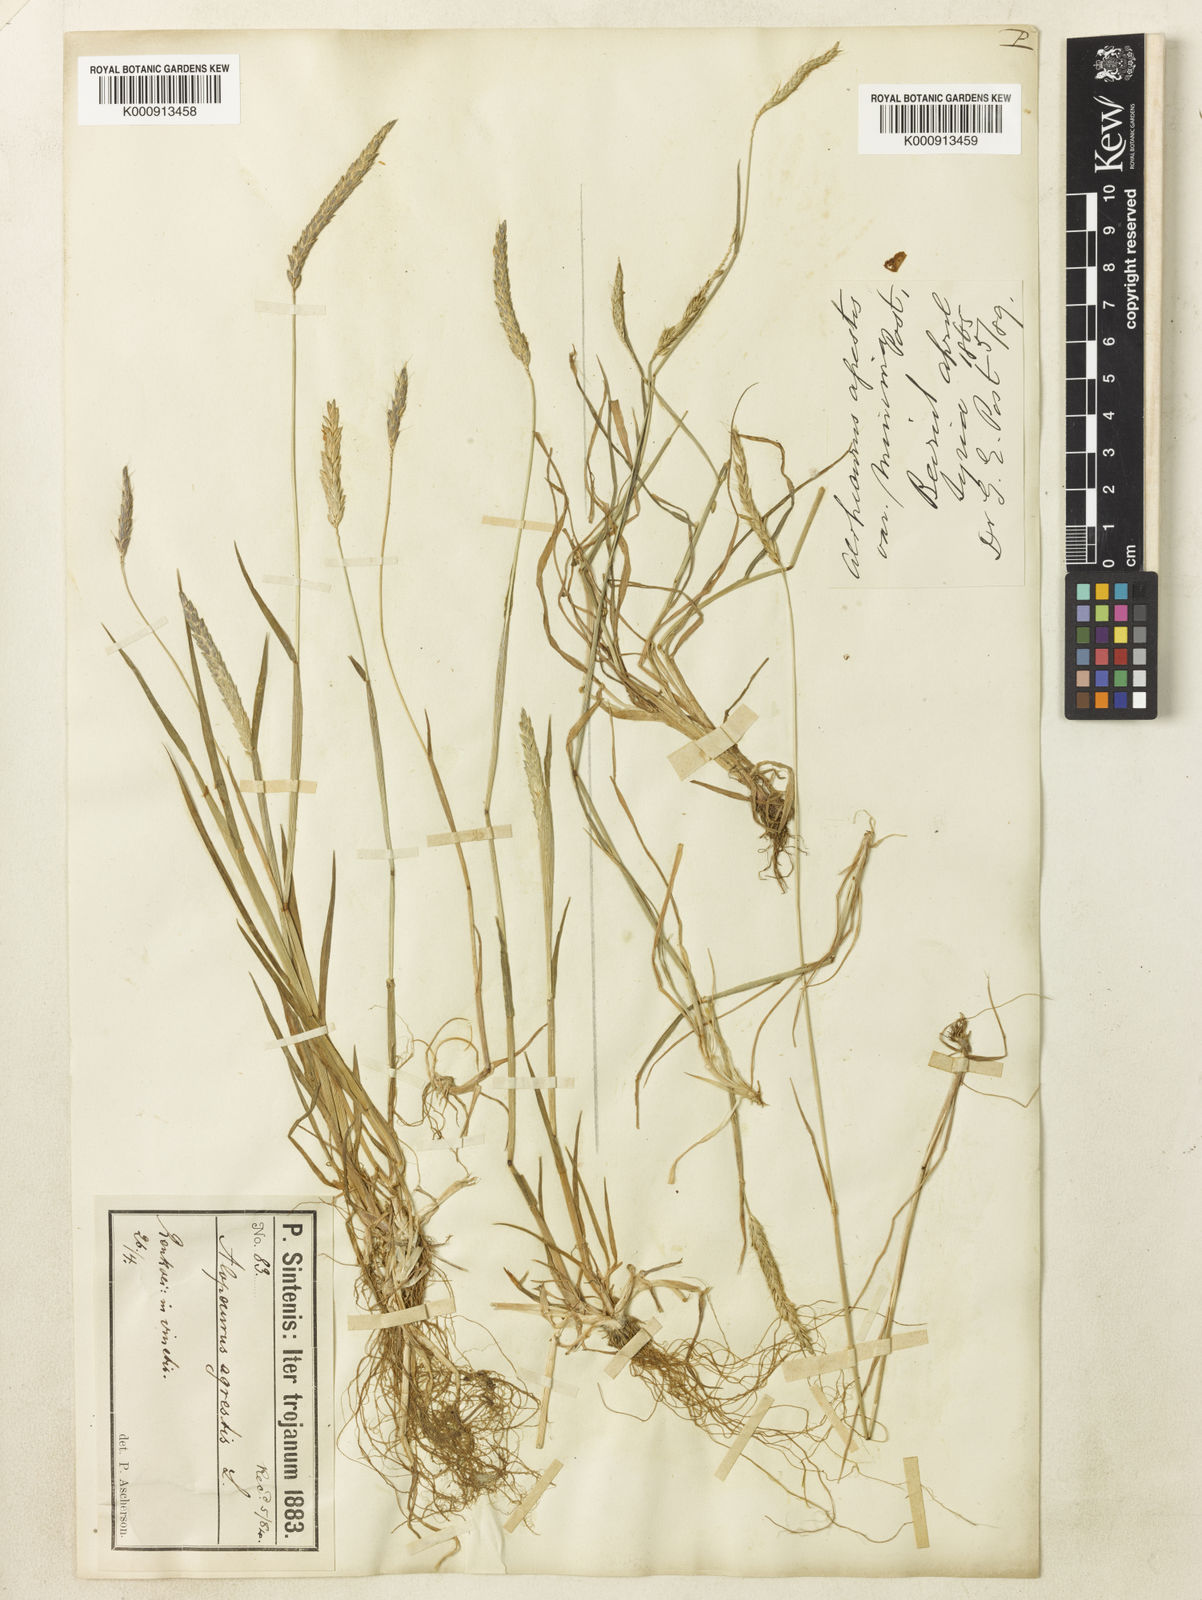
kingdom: Plantae
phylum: Tracheophyta
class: Liliopsida
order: Poales
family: Poaceae
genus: Alopecurus
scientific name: Alopecurus myosuroides
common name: Black-grass
